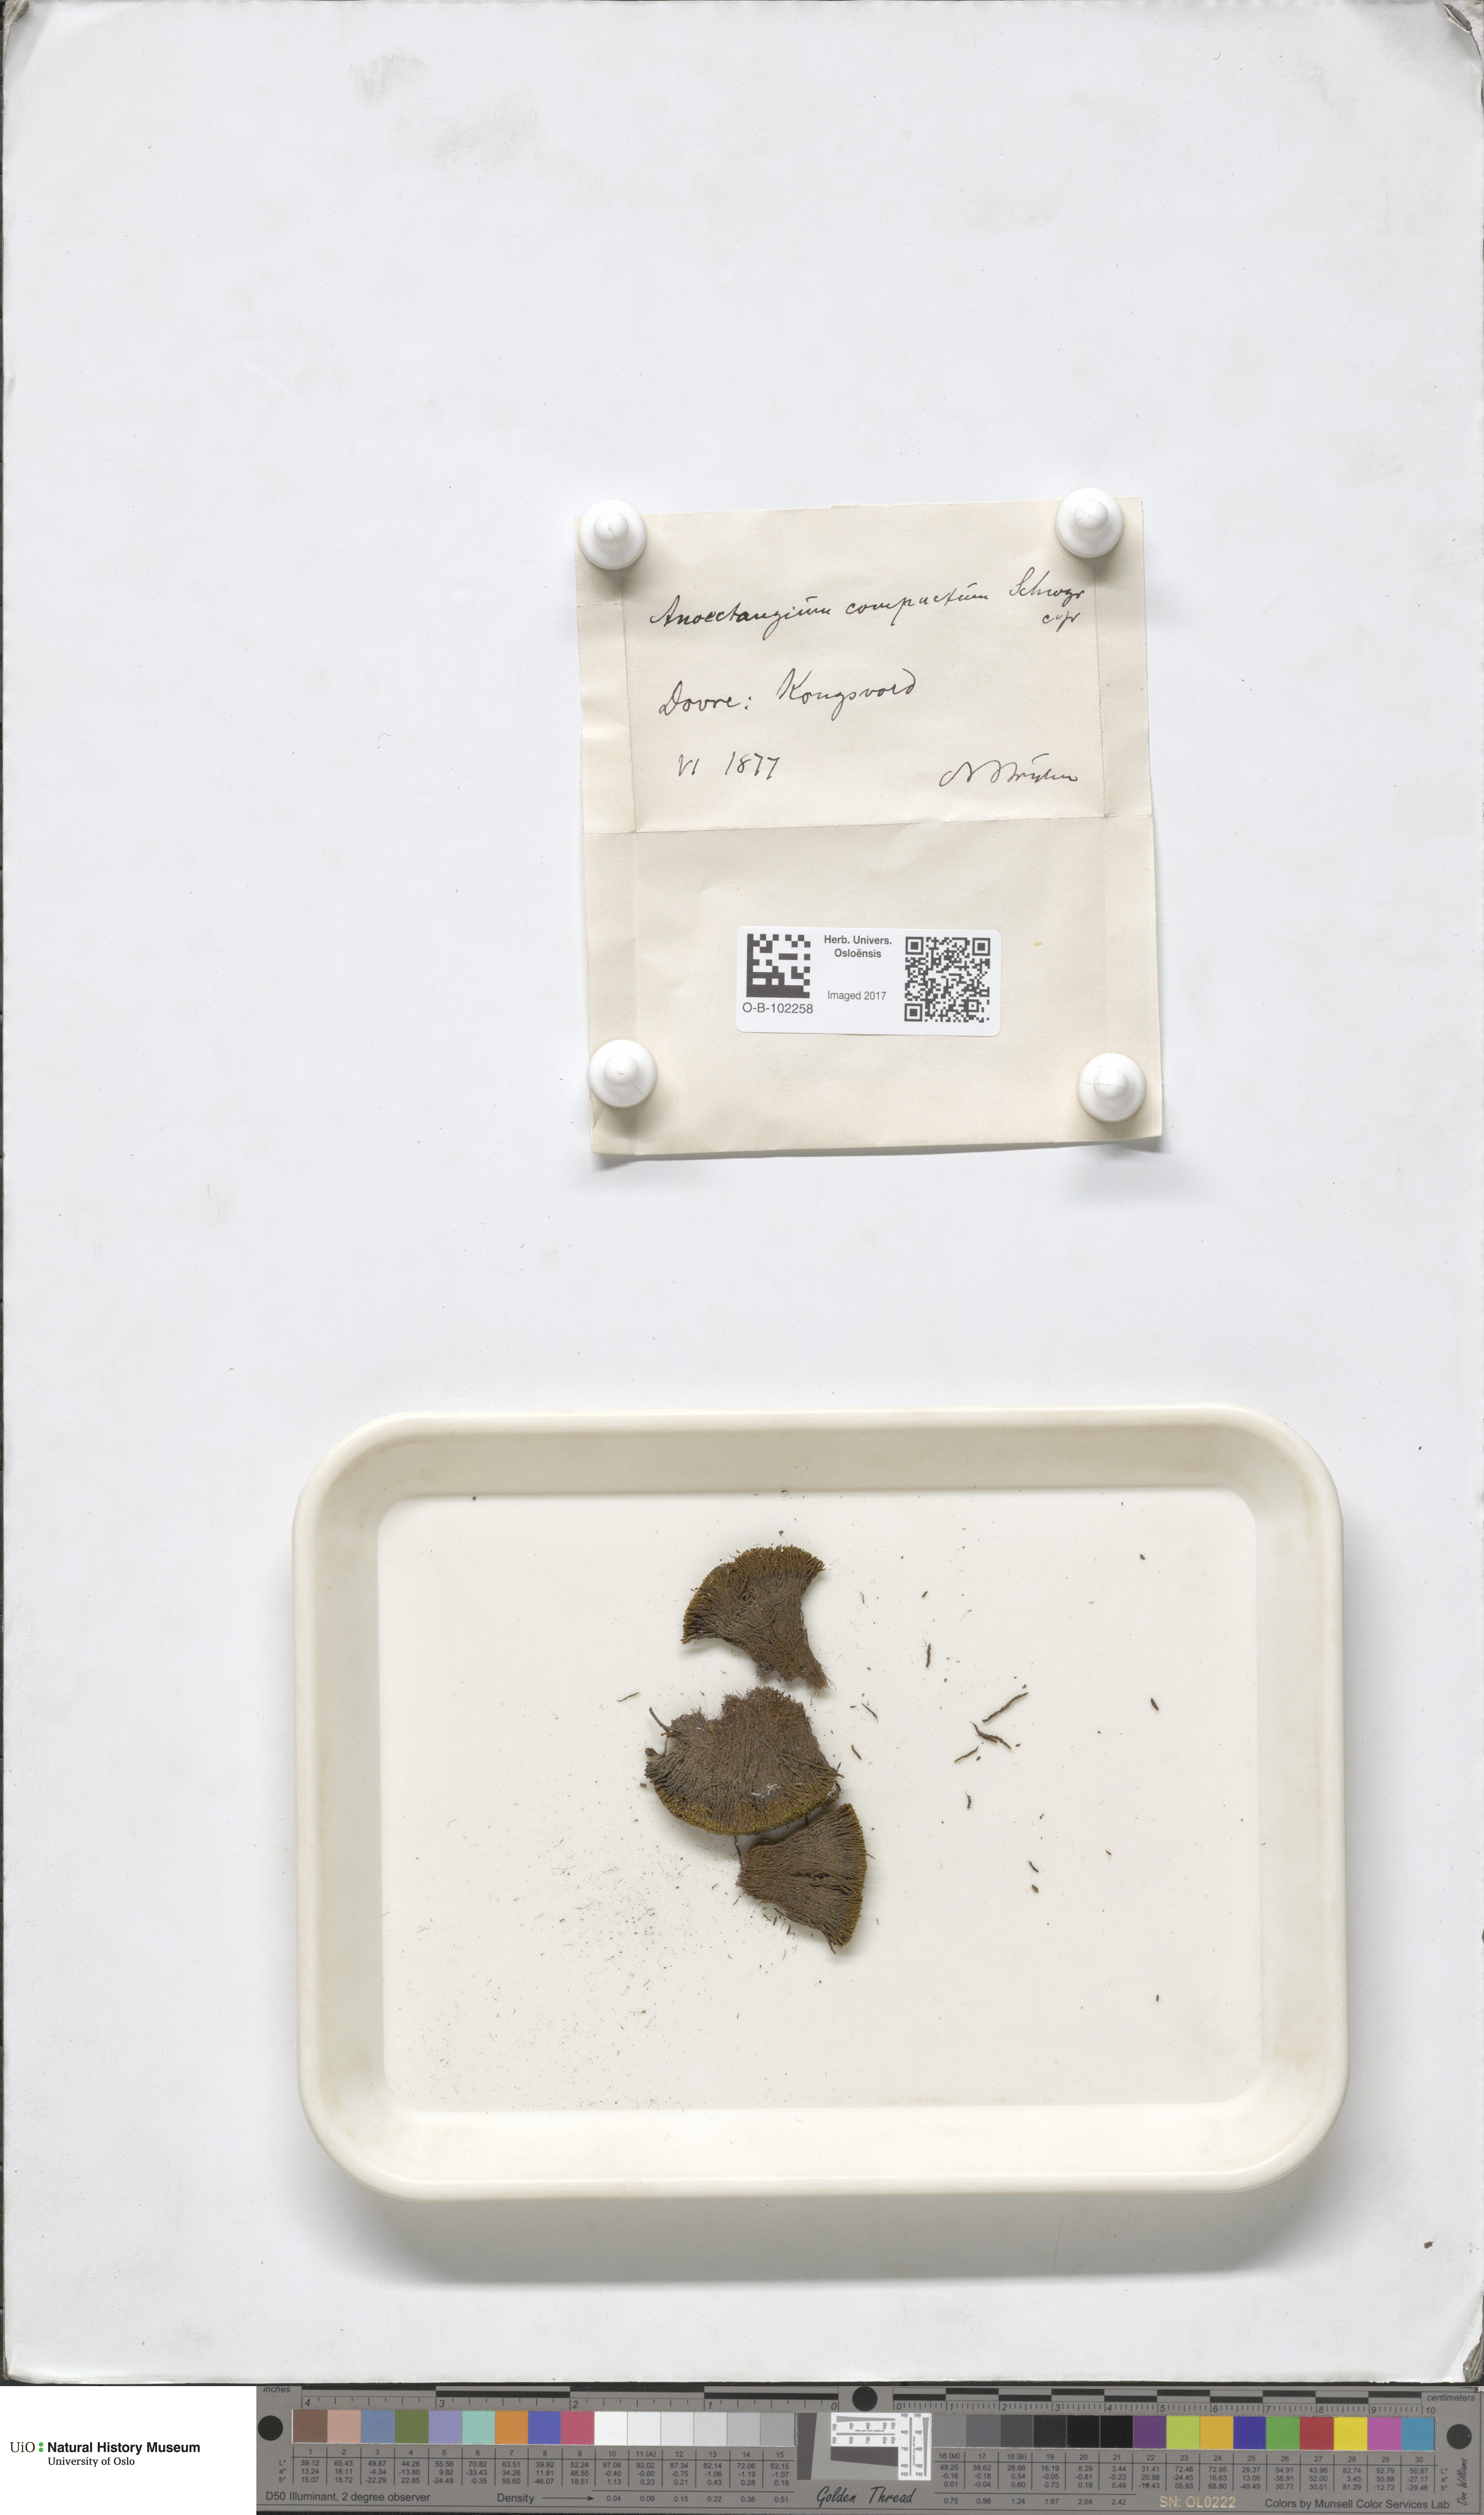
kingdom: Plantae
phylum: Bryophyta
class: Bryopsida
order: Pottiales
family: Pottiaceae
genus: Anoectangium
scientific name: Anoectangium aestivum
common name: Summer-moss
